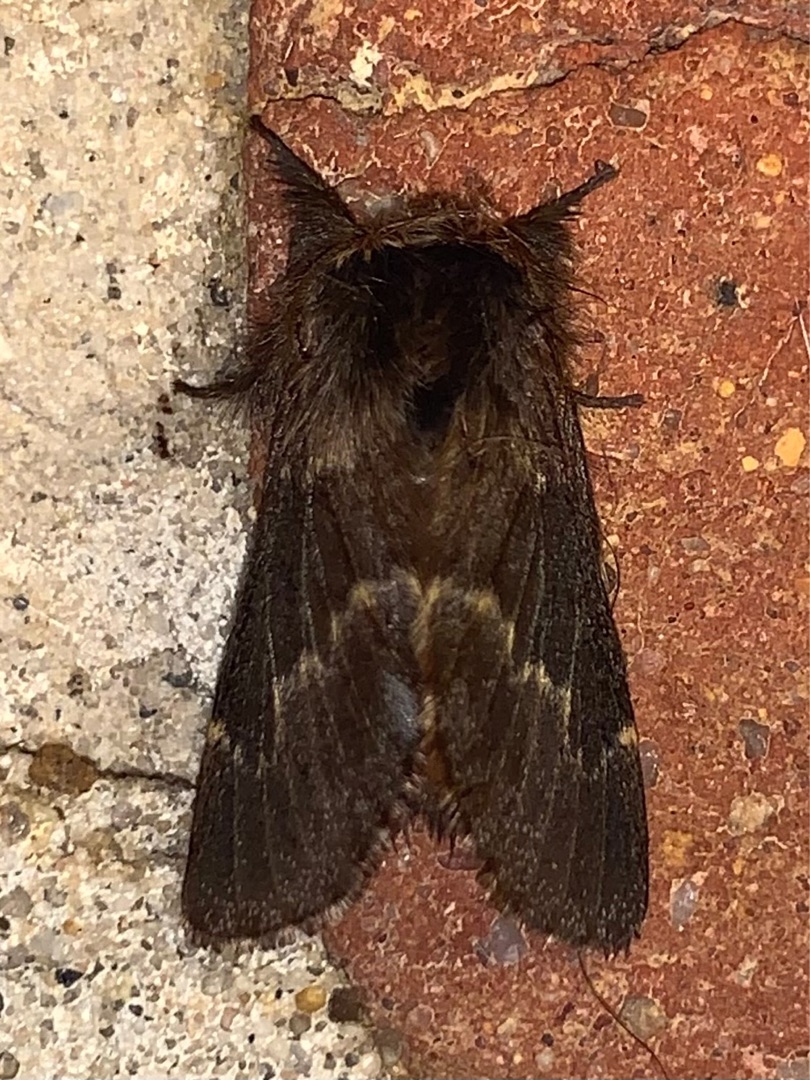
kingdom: Animalia
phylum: Arthropoda
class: Insecta
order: Lepidoptera
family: Lasiocampidae
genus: Poecilocampa
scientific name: Poecilocampa populi
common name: Poppelspinder
